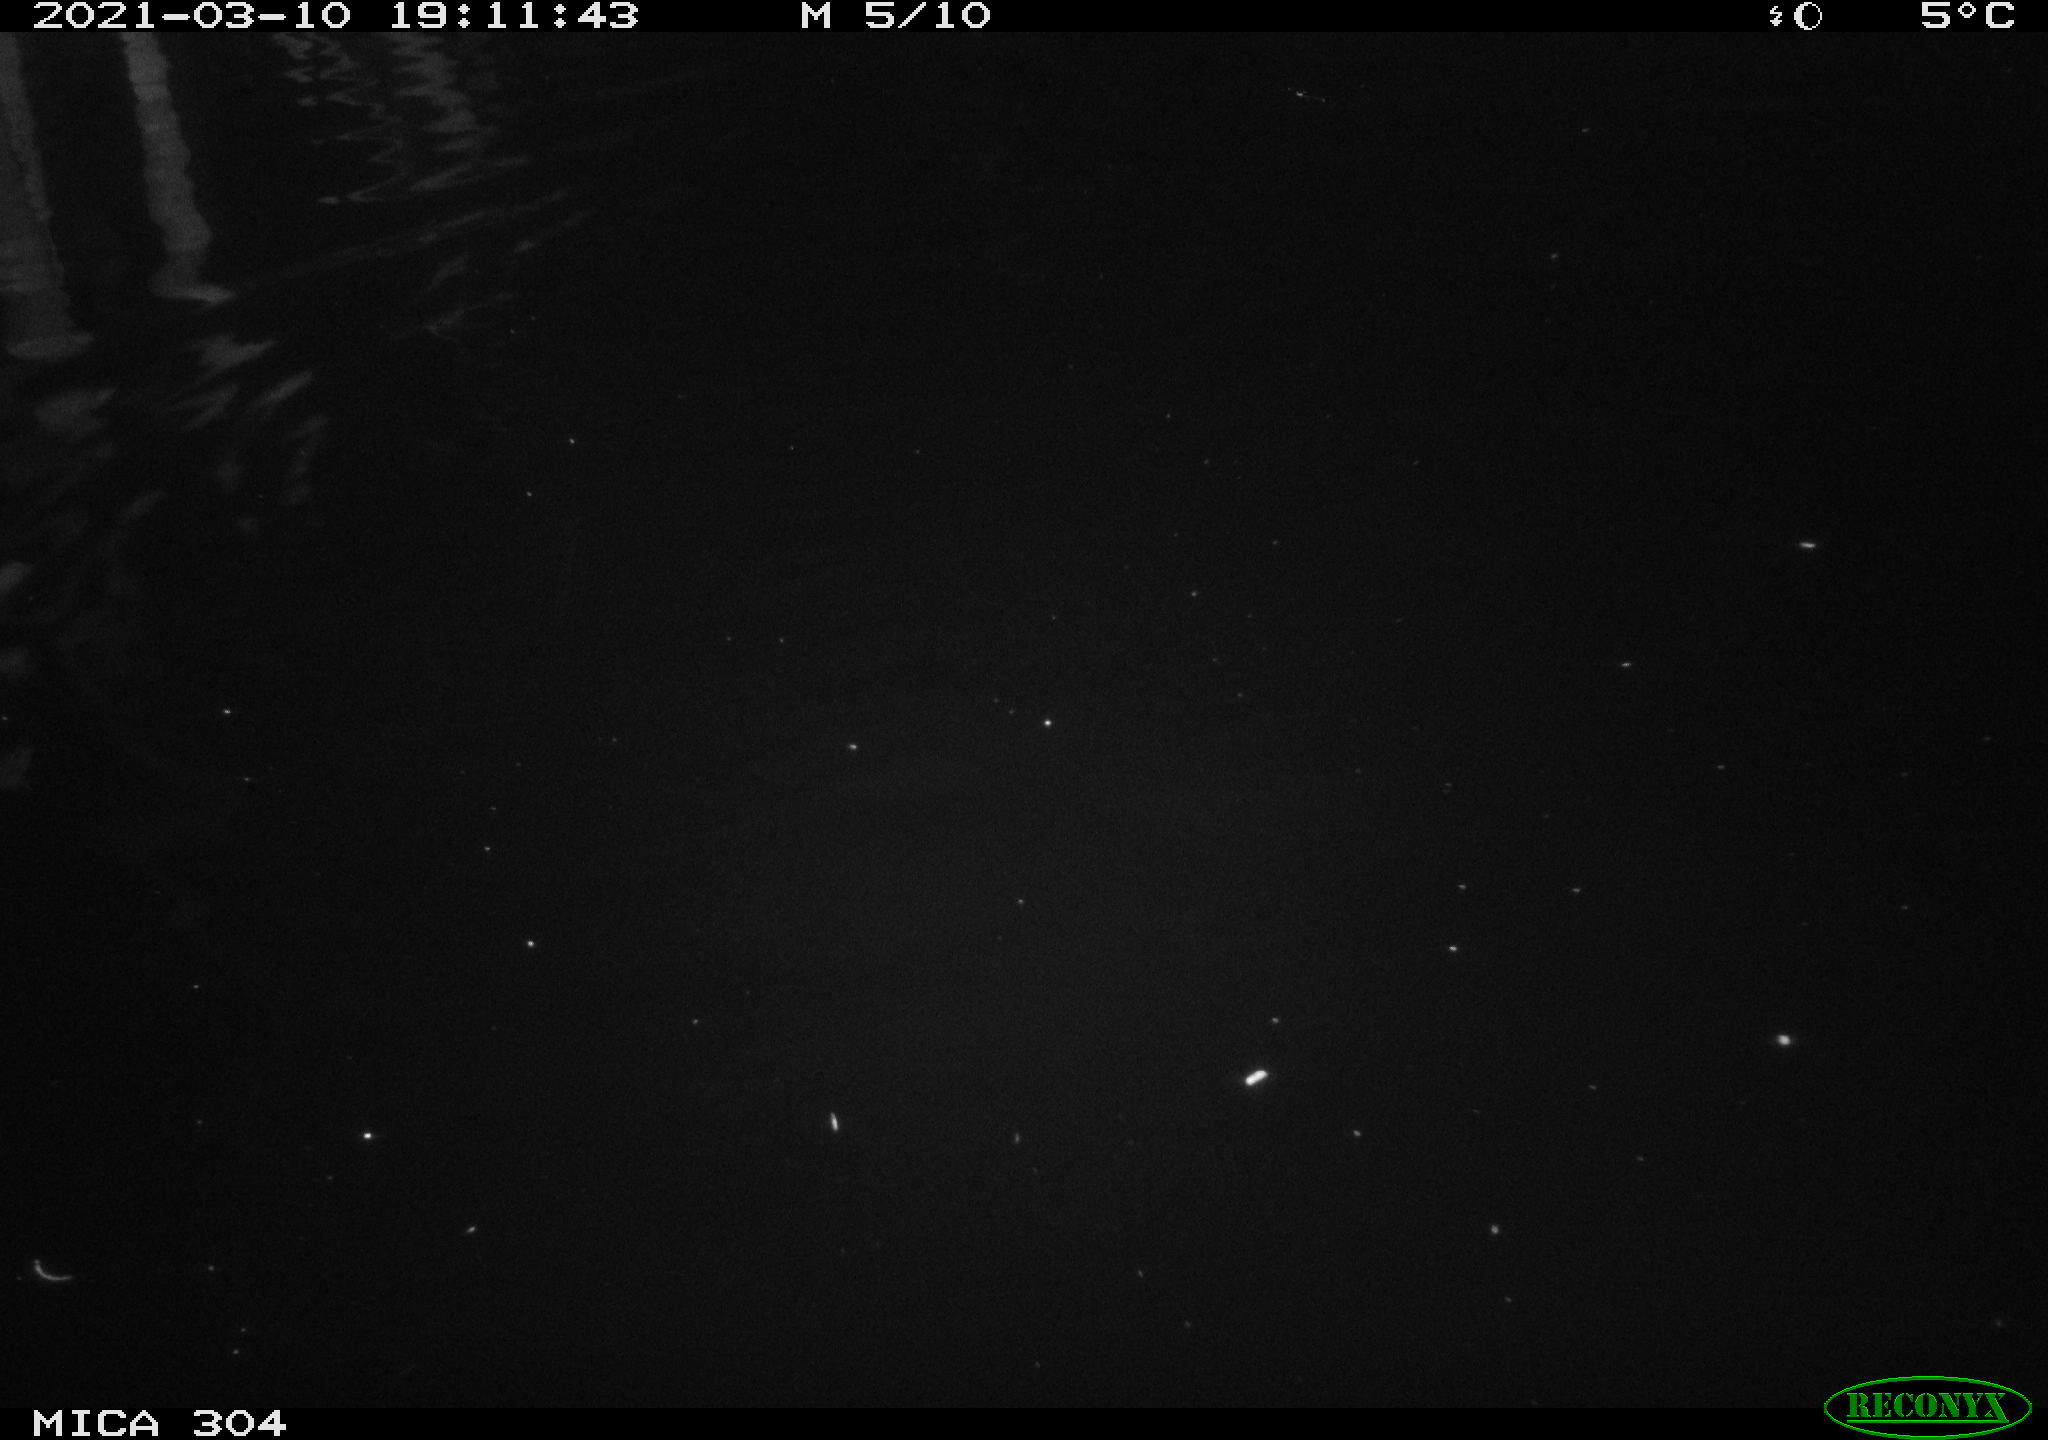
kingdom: Animalia
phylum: Chordata
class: Mammalia
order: Rodentia
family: Cricetidae
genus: Ondatra
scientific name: Ondatra zibethicus
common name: Muskrat
